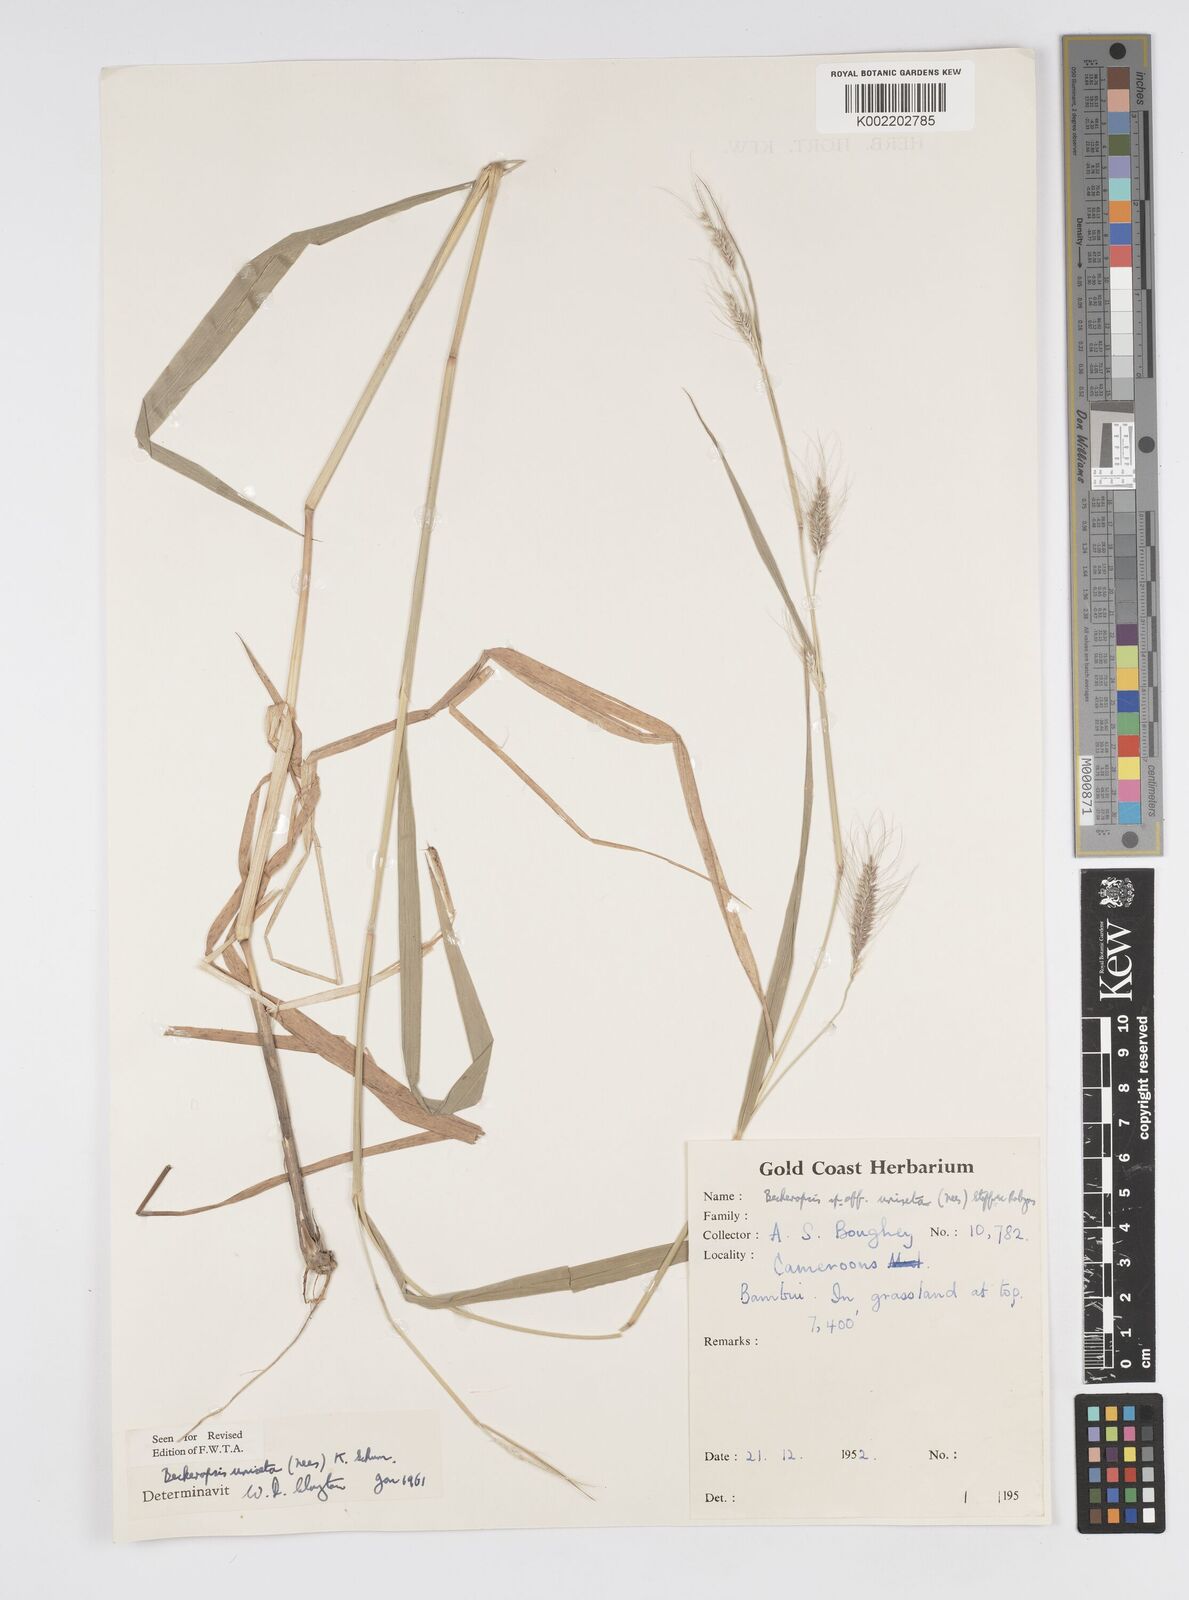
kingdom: Plantae
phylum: Tracheophyta
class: Liliopsida
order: Poales
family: Poaceae
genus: Cenchrus
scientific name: Cenchrus unisetus
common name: Natal grass
